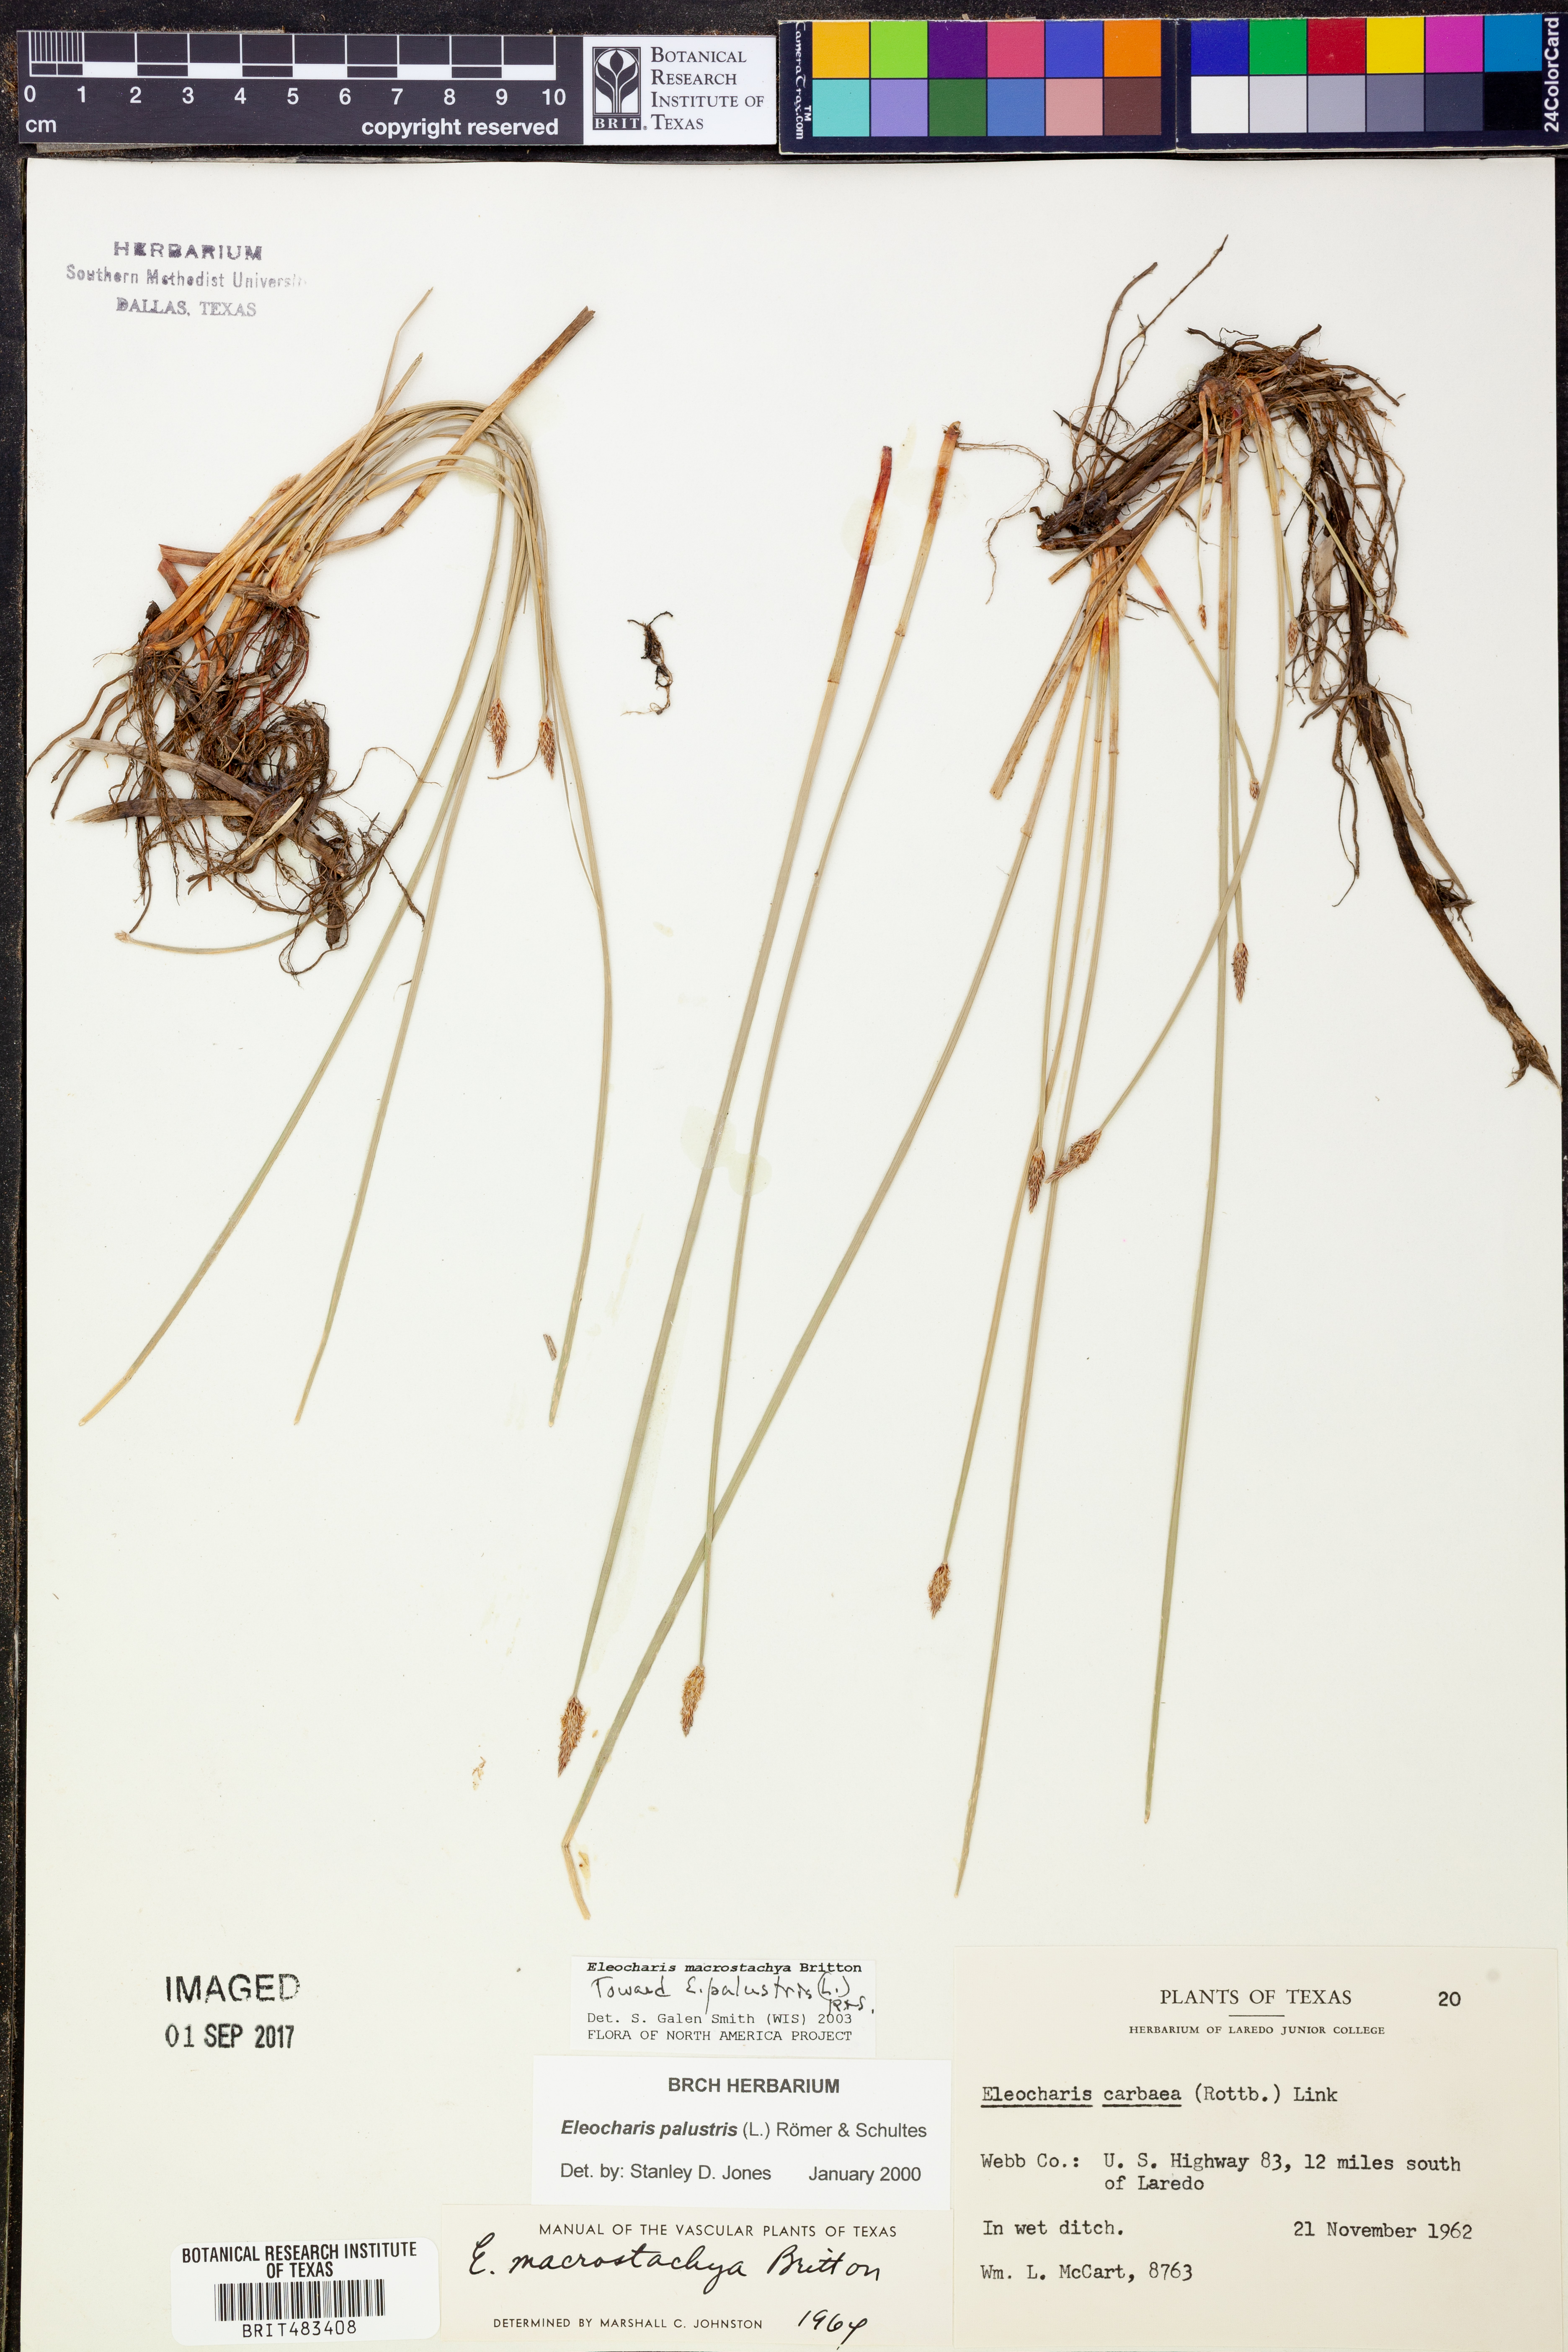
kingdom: Plantae
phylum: Tracheophyta
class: Liliopsida
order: Poales
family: Cyperaceae
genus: Eleocharis
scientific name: Eleocharis palustris
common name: Common spike-rush
